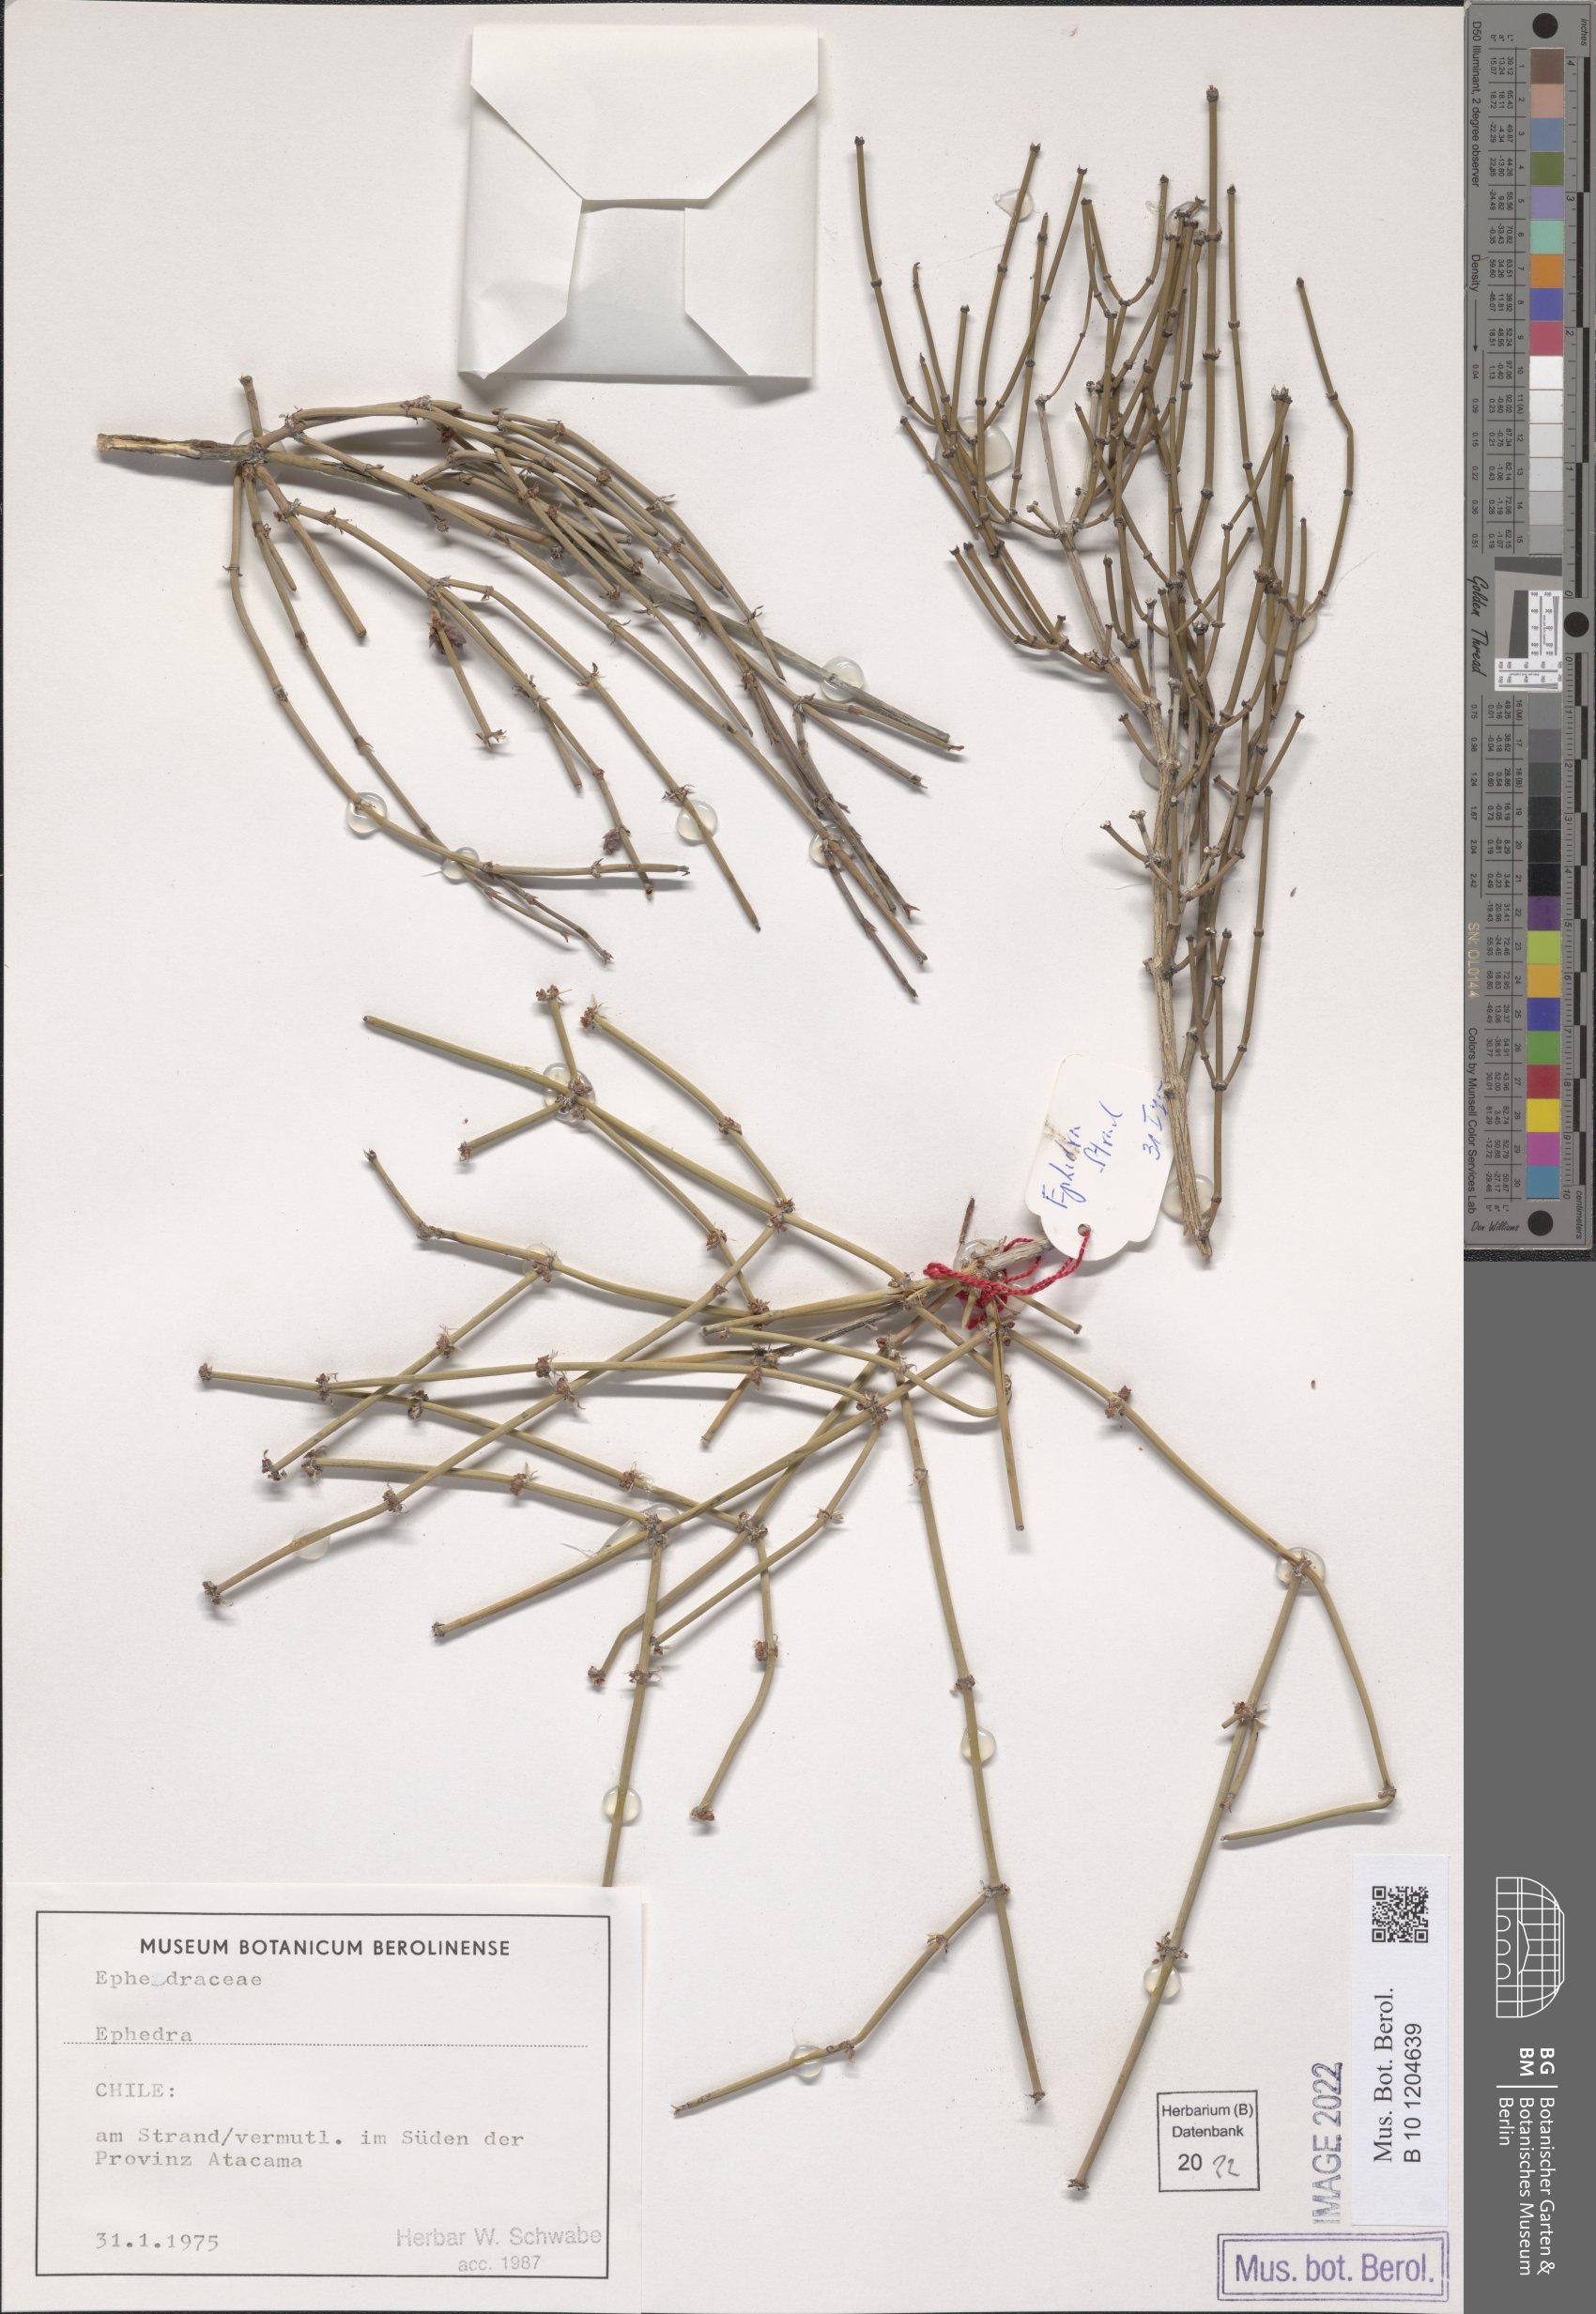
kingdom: Plantae
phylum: Tracheophyta
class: Gnetopsida
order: Ephedrales
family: Ephedraceae
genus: Ephedra
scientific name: Ephedra
